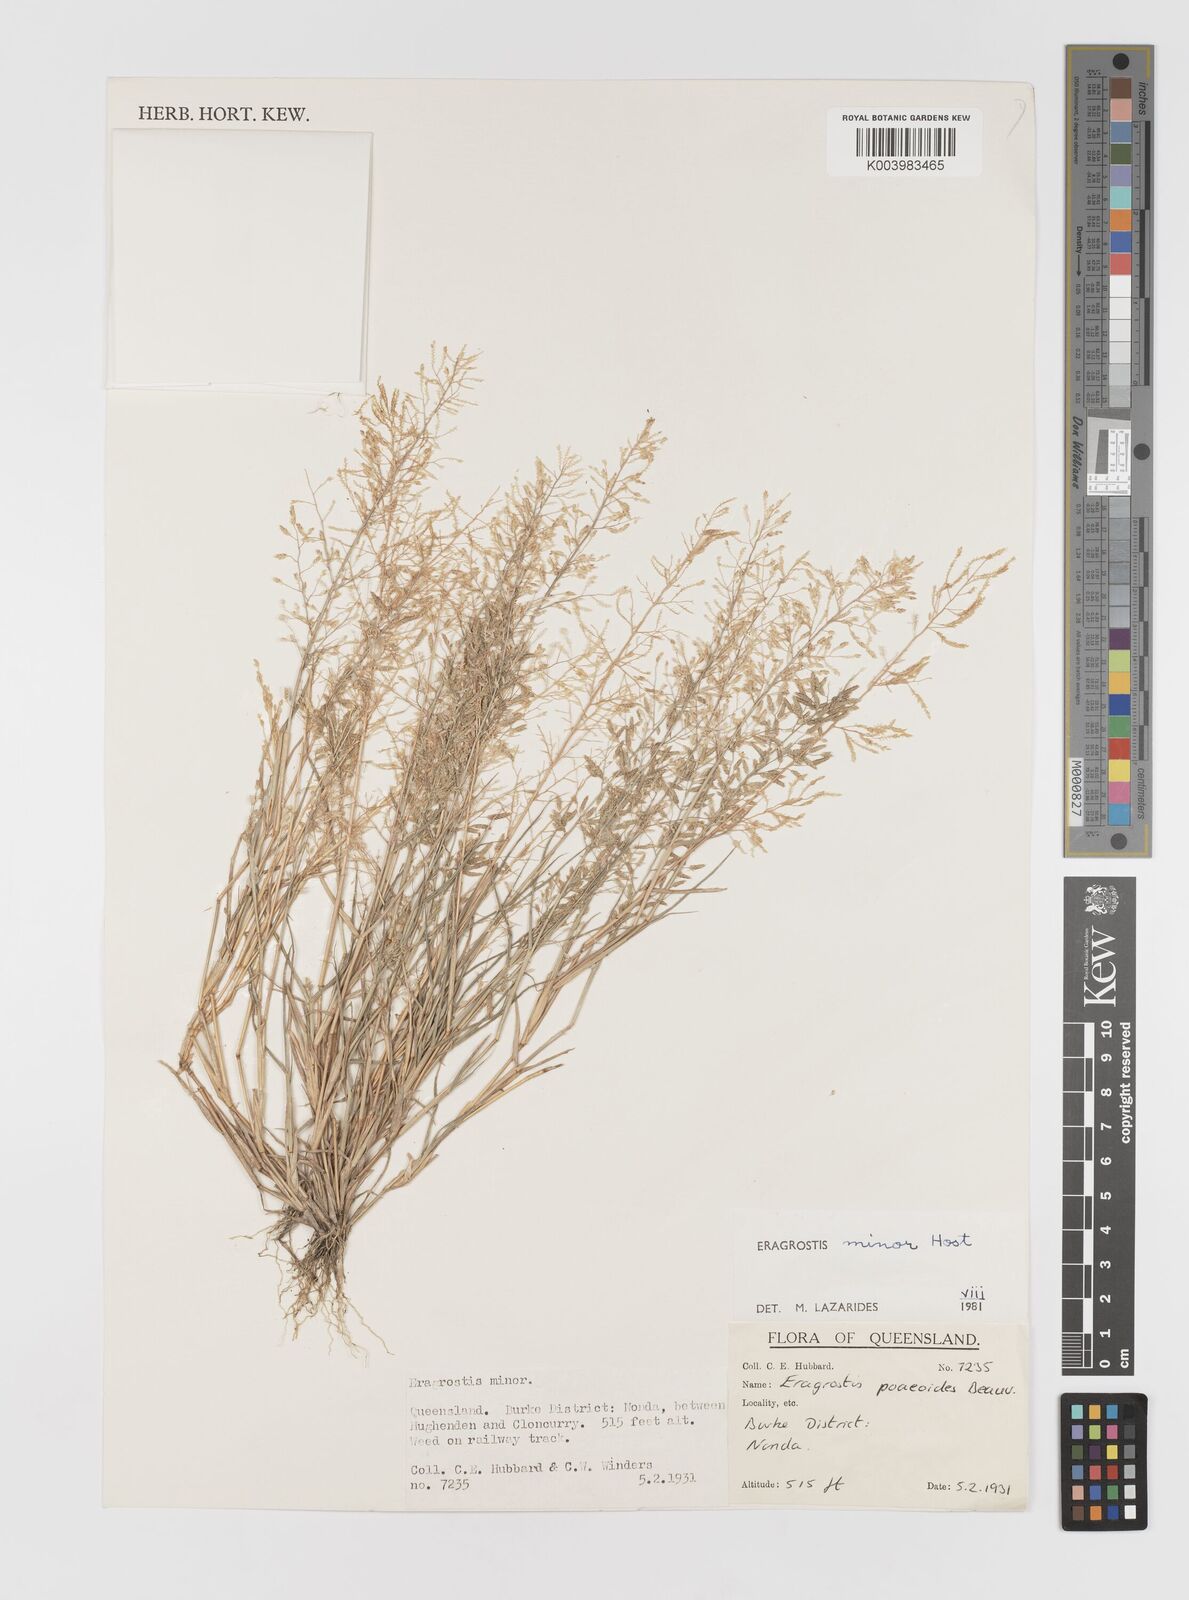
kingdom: Plantae
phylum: Tracheophyta
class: Liliopsida
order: Poales
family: Poaceae
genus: Eragrostis
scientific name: Eragrostis minor
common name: Small love-grass
